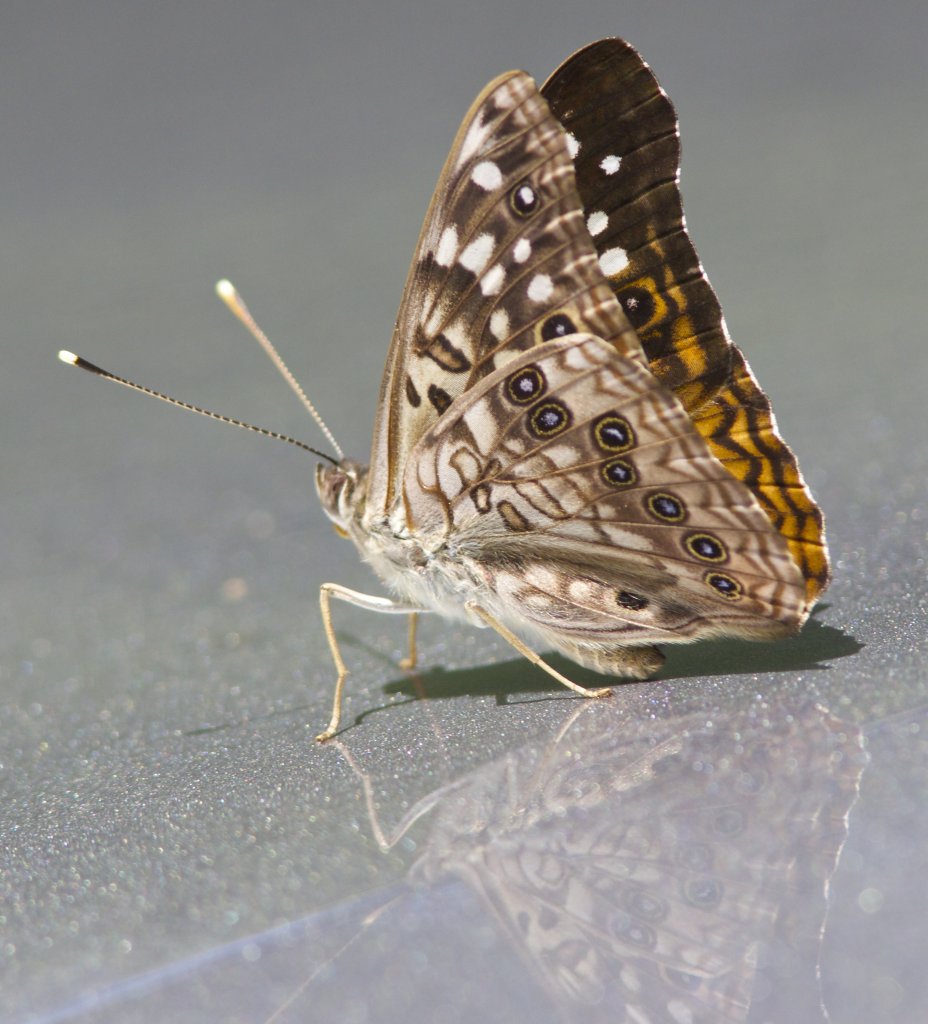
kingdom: Animalia
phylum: Arthropoda
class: Insecta
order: Lepidoptera
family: Nymphalidae
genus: Asterocampa
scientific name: Asterocampa celtis
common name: Hackberry Emperor
